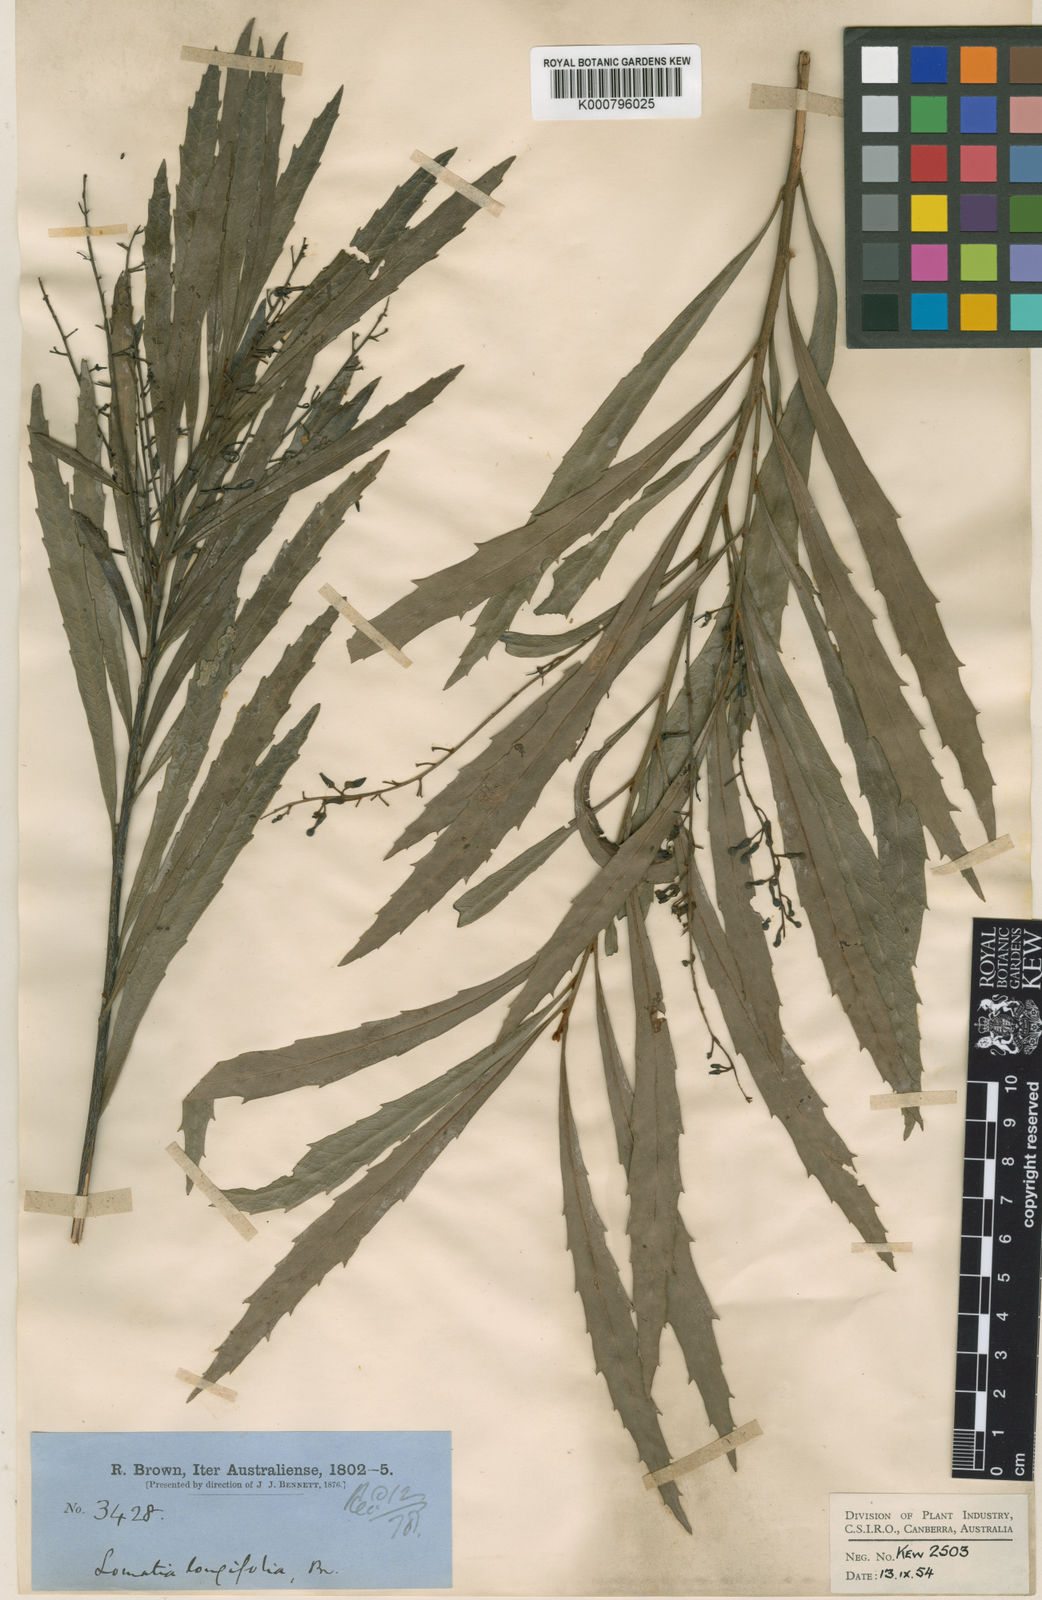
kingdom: Plantae
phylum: Tracheophyta
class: Magnoliopsida
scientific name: Magnoliopsida
